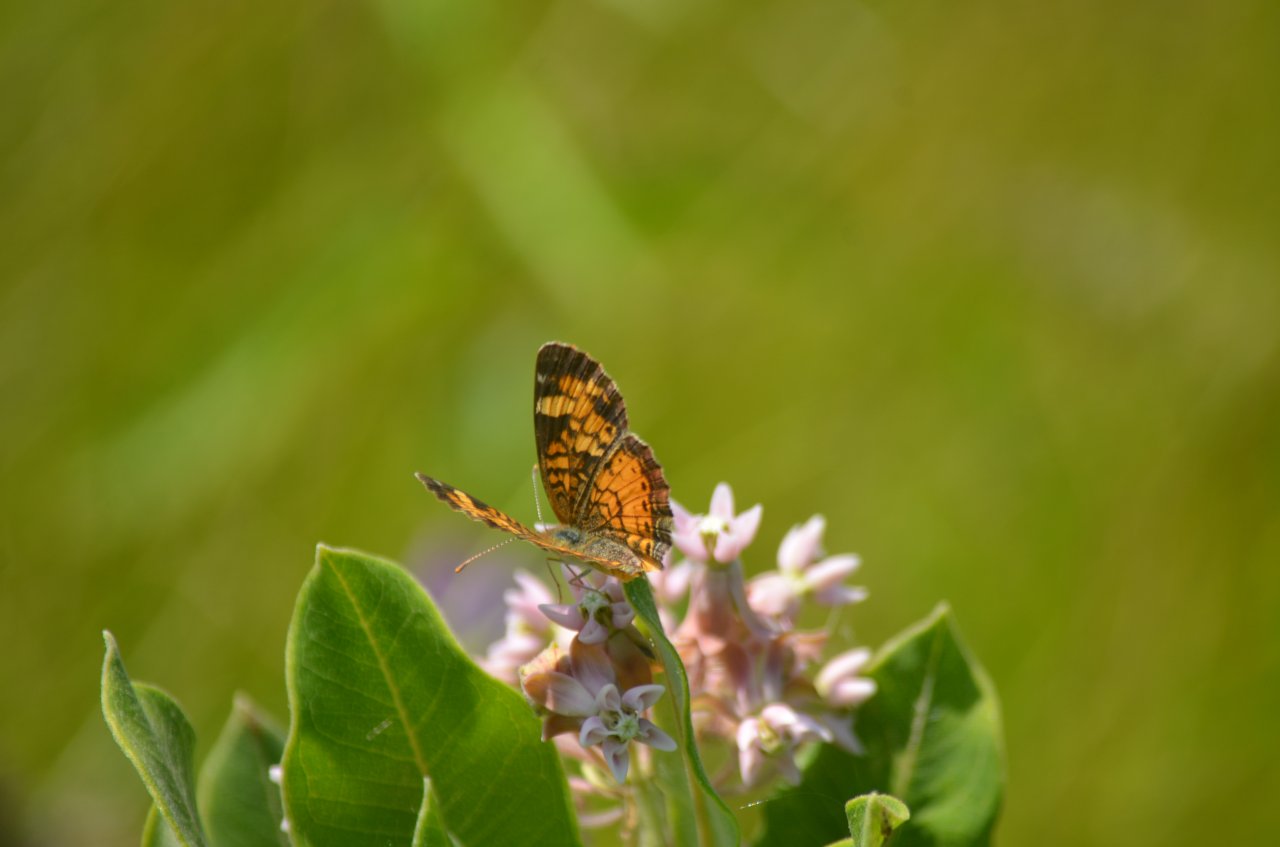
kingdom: Animalia
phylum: Arthropoda
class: Insecta
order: Lepidoptera
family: Nymphalidae
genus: Phyciodes
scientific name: Phyciodes tharos
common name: Northern Crescent
